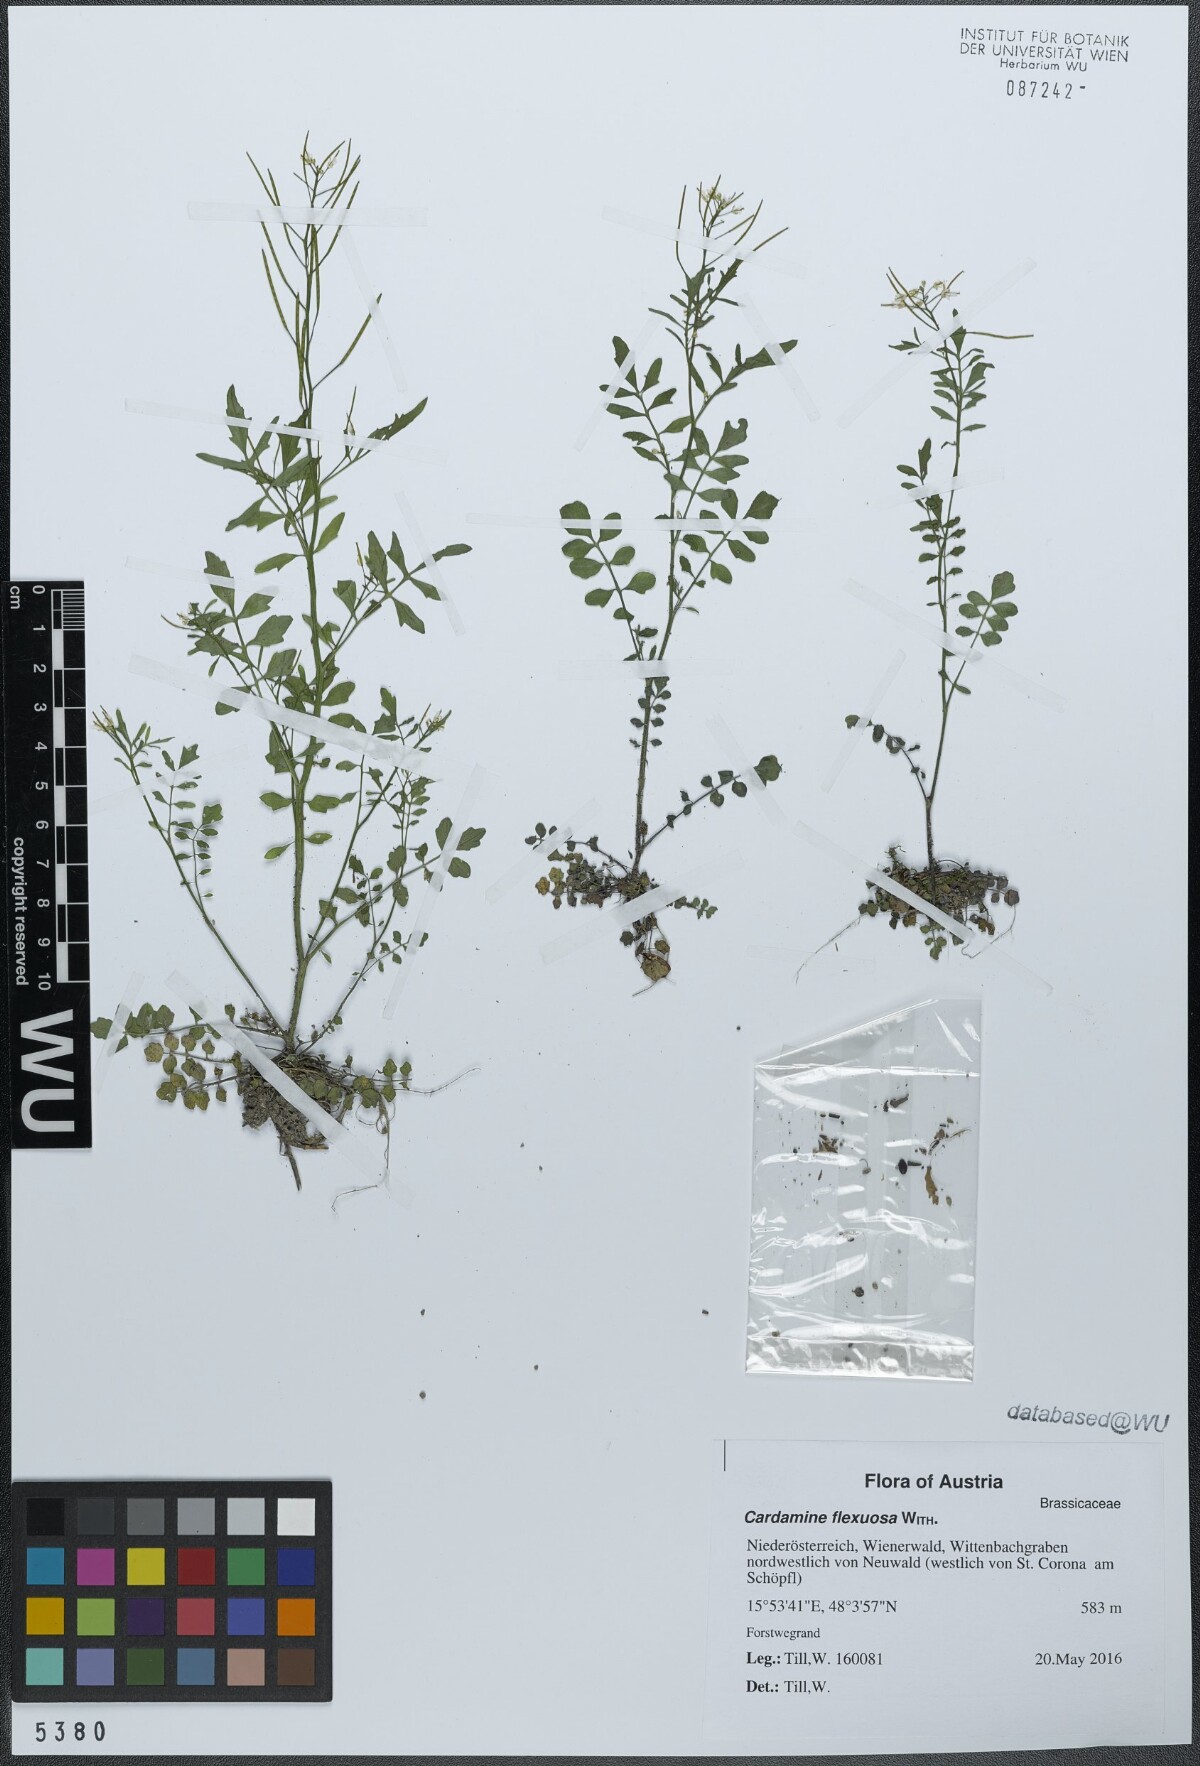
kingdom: Plantae
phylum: Tracheophyta
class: Magnoliopsida
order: Brassicales
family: Brassicaceae
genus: Cardamine
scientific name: Cardamine flexuosa
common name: Woodland bittercress
